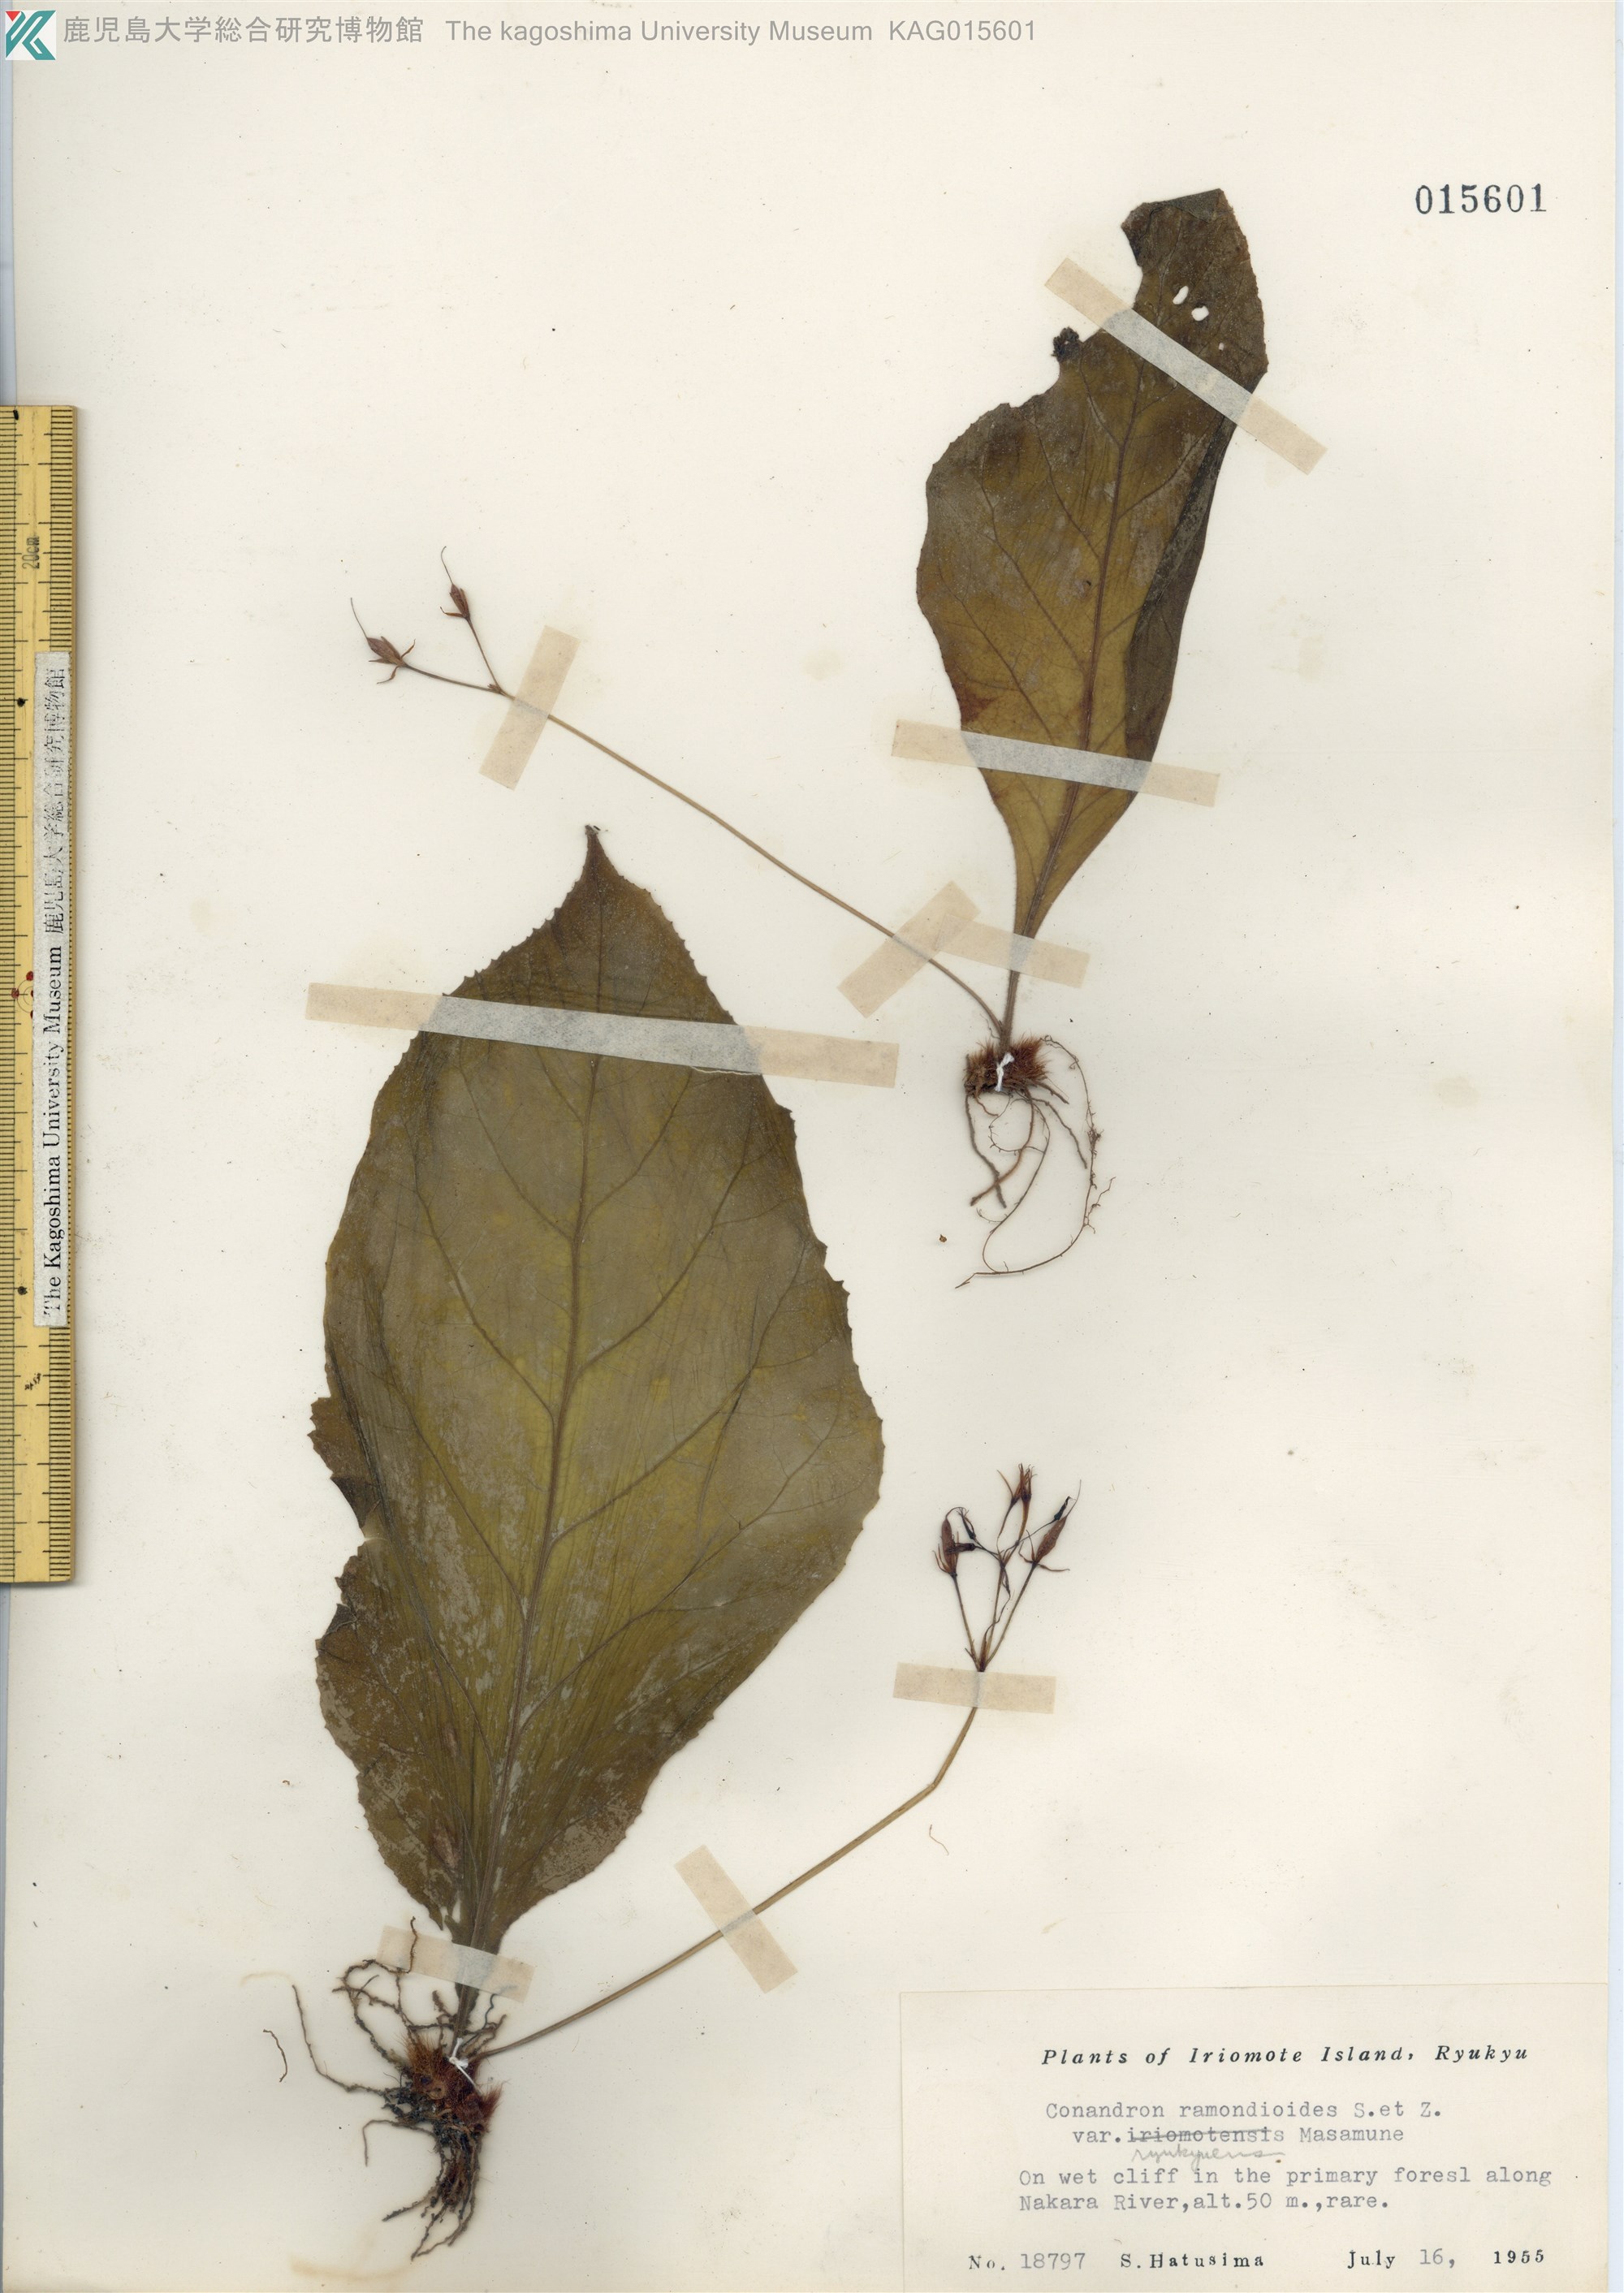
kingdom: Plantae
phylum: Tracheophyta
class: Magnoliopsida
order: Lamiales
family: Gesneriaceae
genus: Conandron
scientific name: Conandron ramondioides
